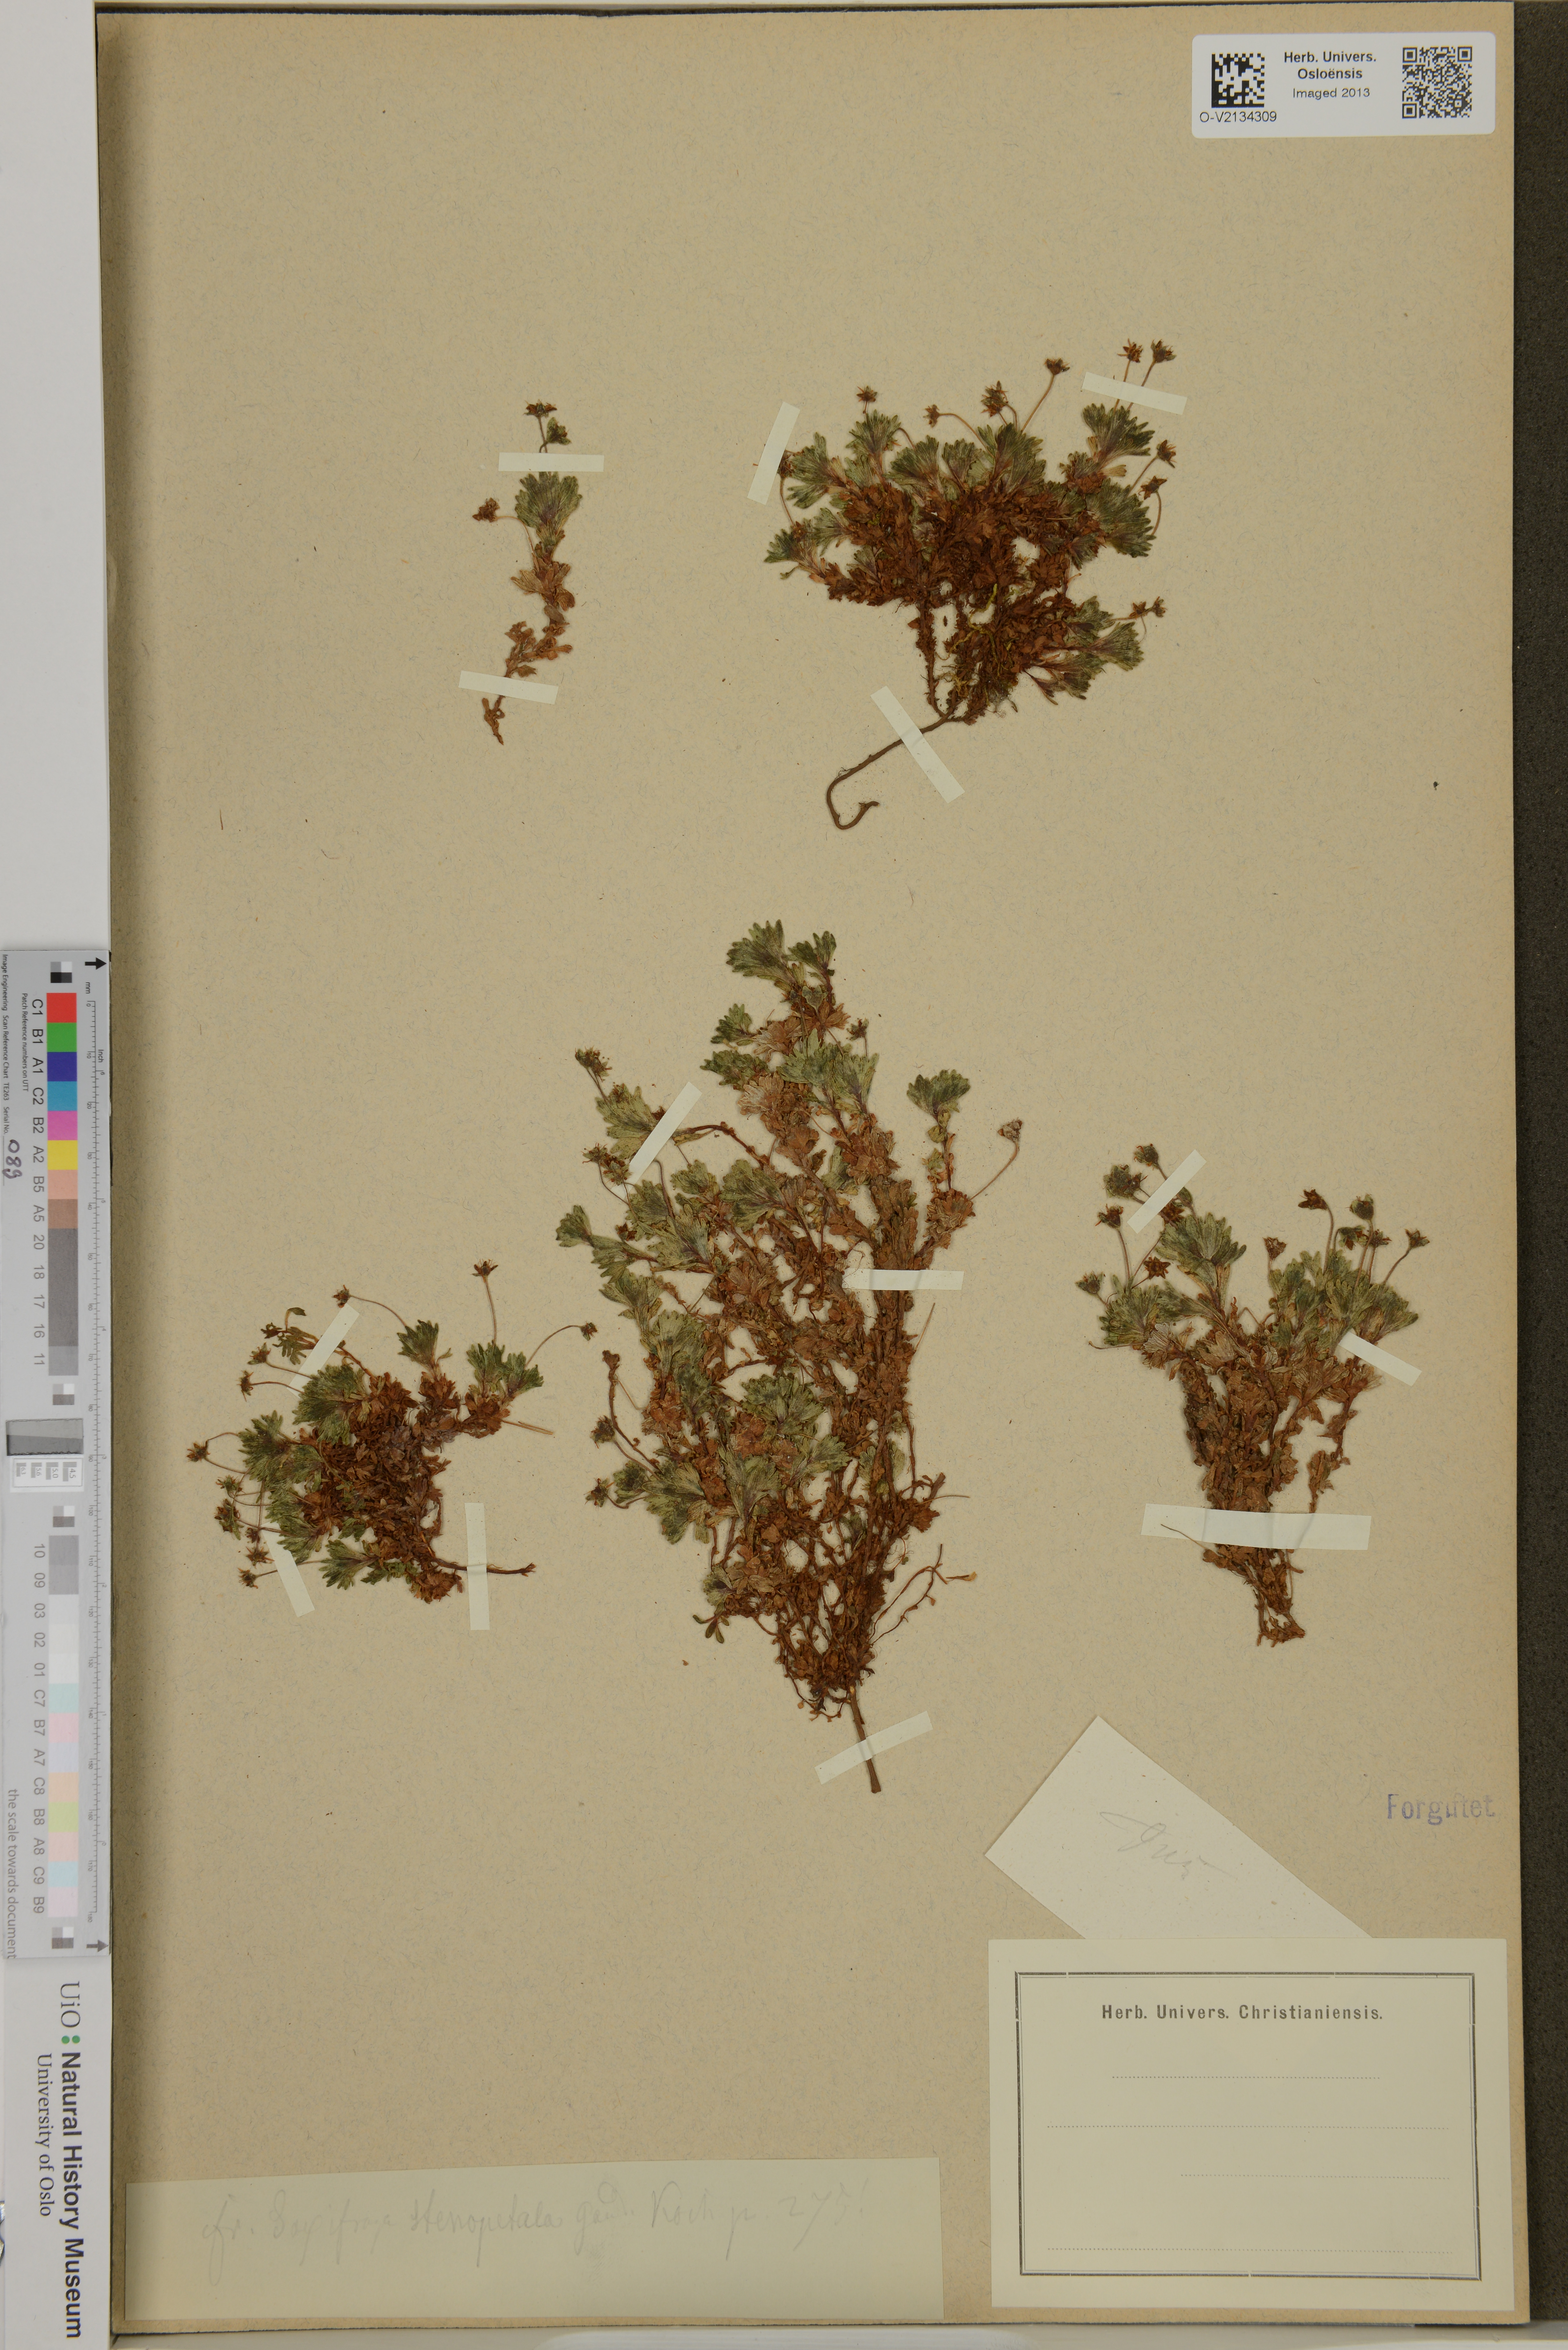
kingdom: Plantae
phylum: Tracheophyta
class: Magnoliopsida
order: Saxifragales
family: Saxifragaceae
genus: Saxifraga
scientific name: Saxifraga aphylla
